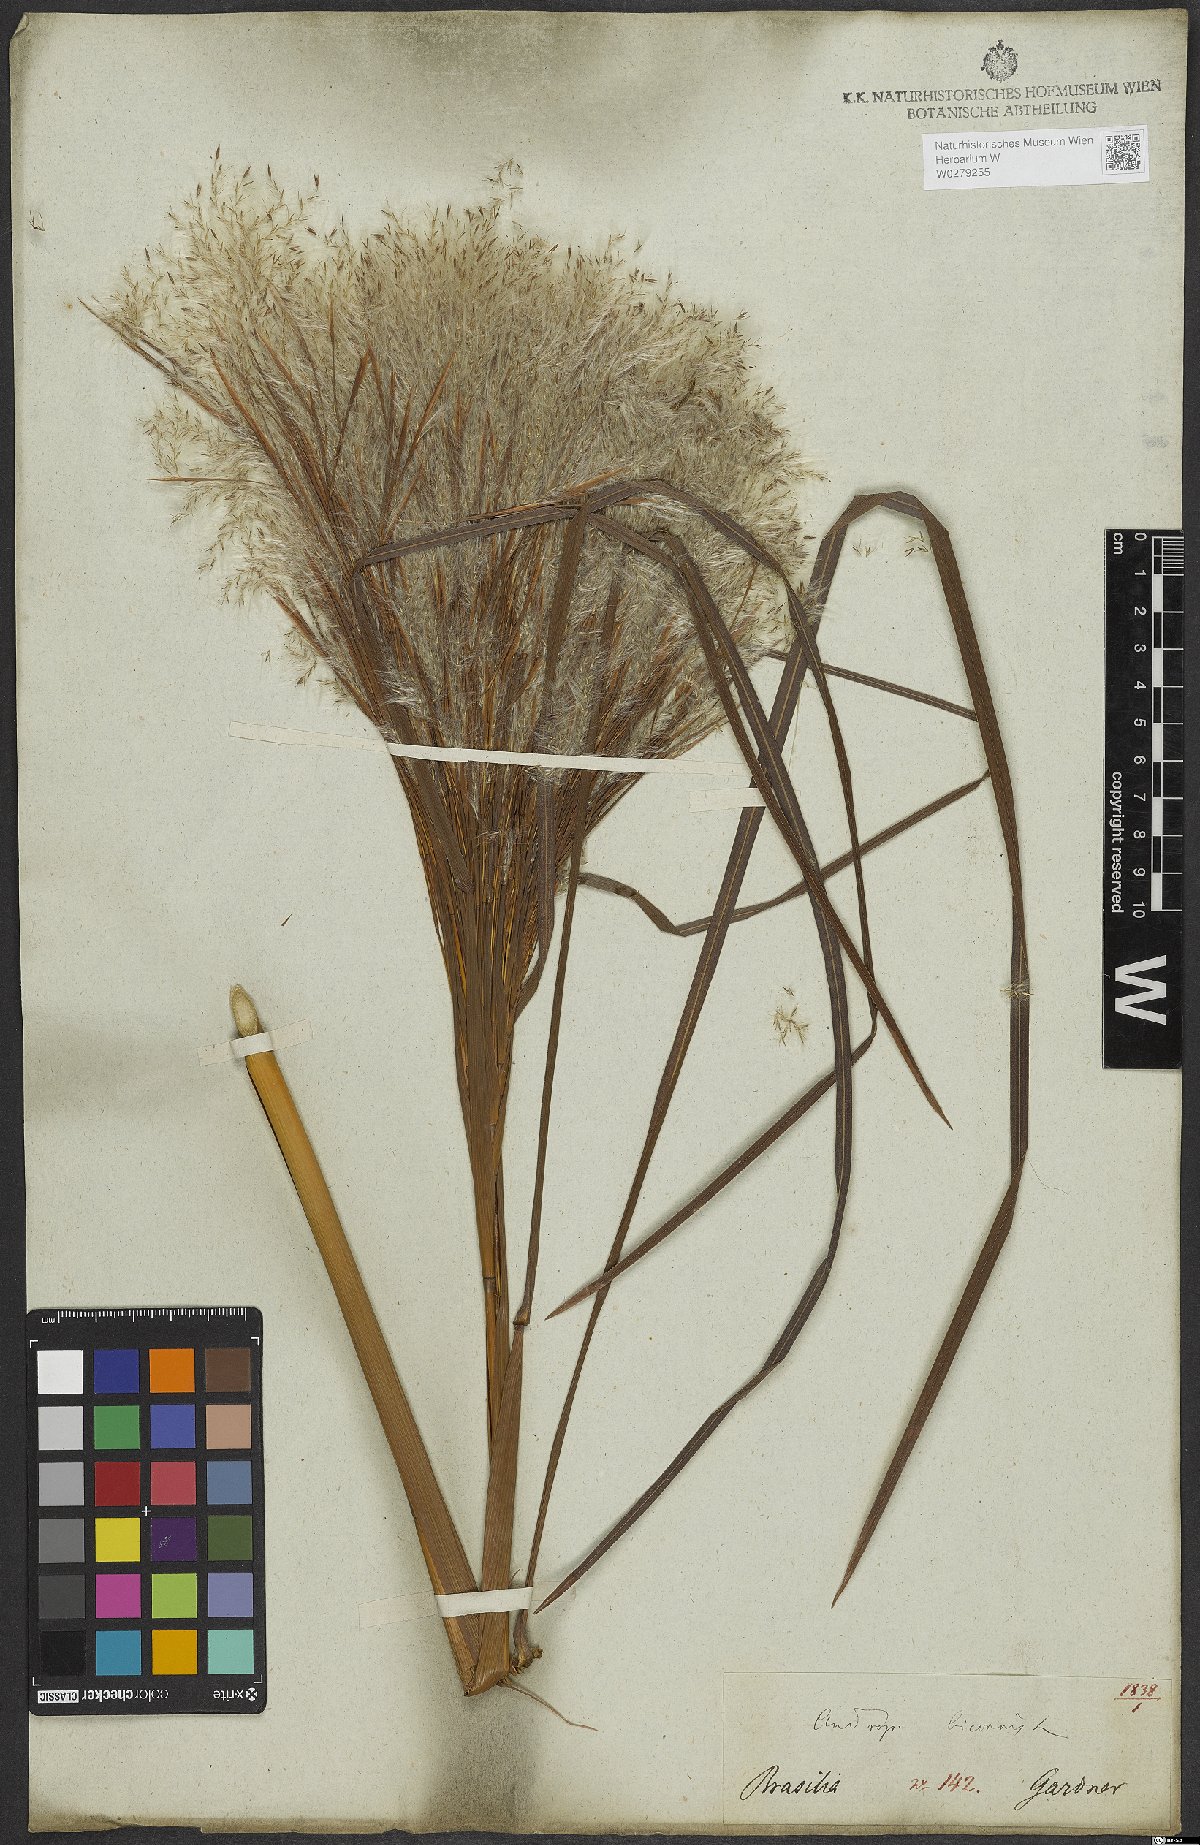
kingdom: Plantae
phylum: Tracheophyta
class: Liliopsida
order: Poales
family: Poaceae
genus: Andropogon
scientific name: Andropogon bicornis
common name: West indian foxtail grass
